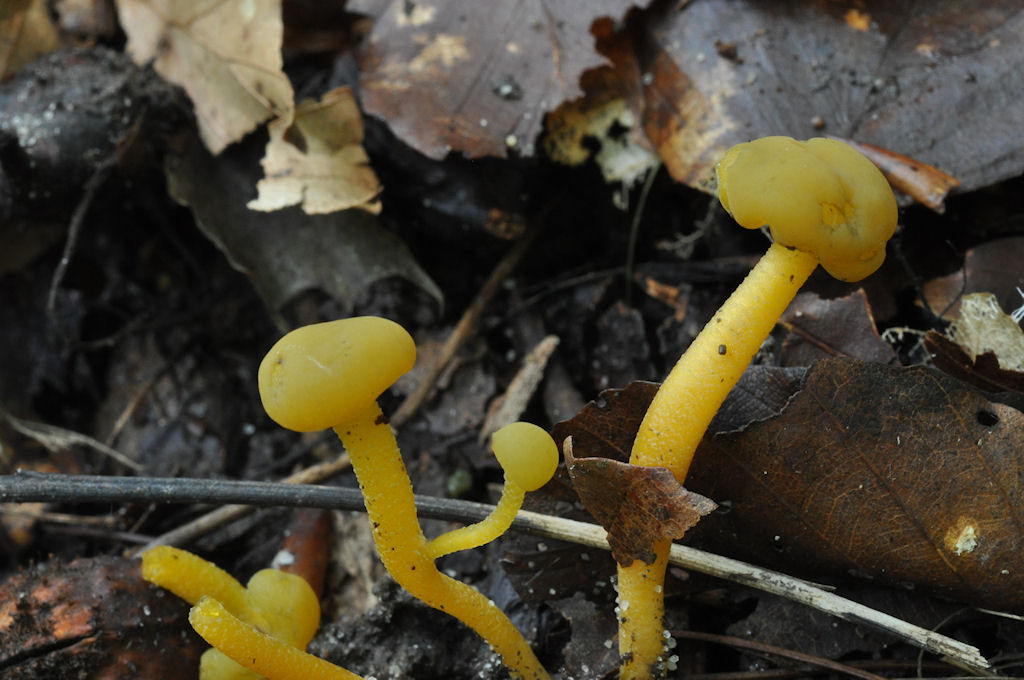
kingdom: Fungi
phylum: Ascomycota
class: Leotiomycetes
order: Leotiales
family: Leotiaceae
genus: Leotia
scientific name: Leotia lubrica
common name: ravsvamp
